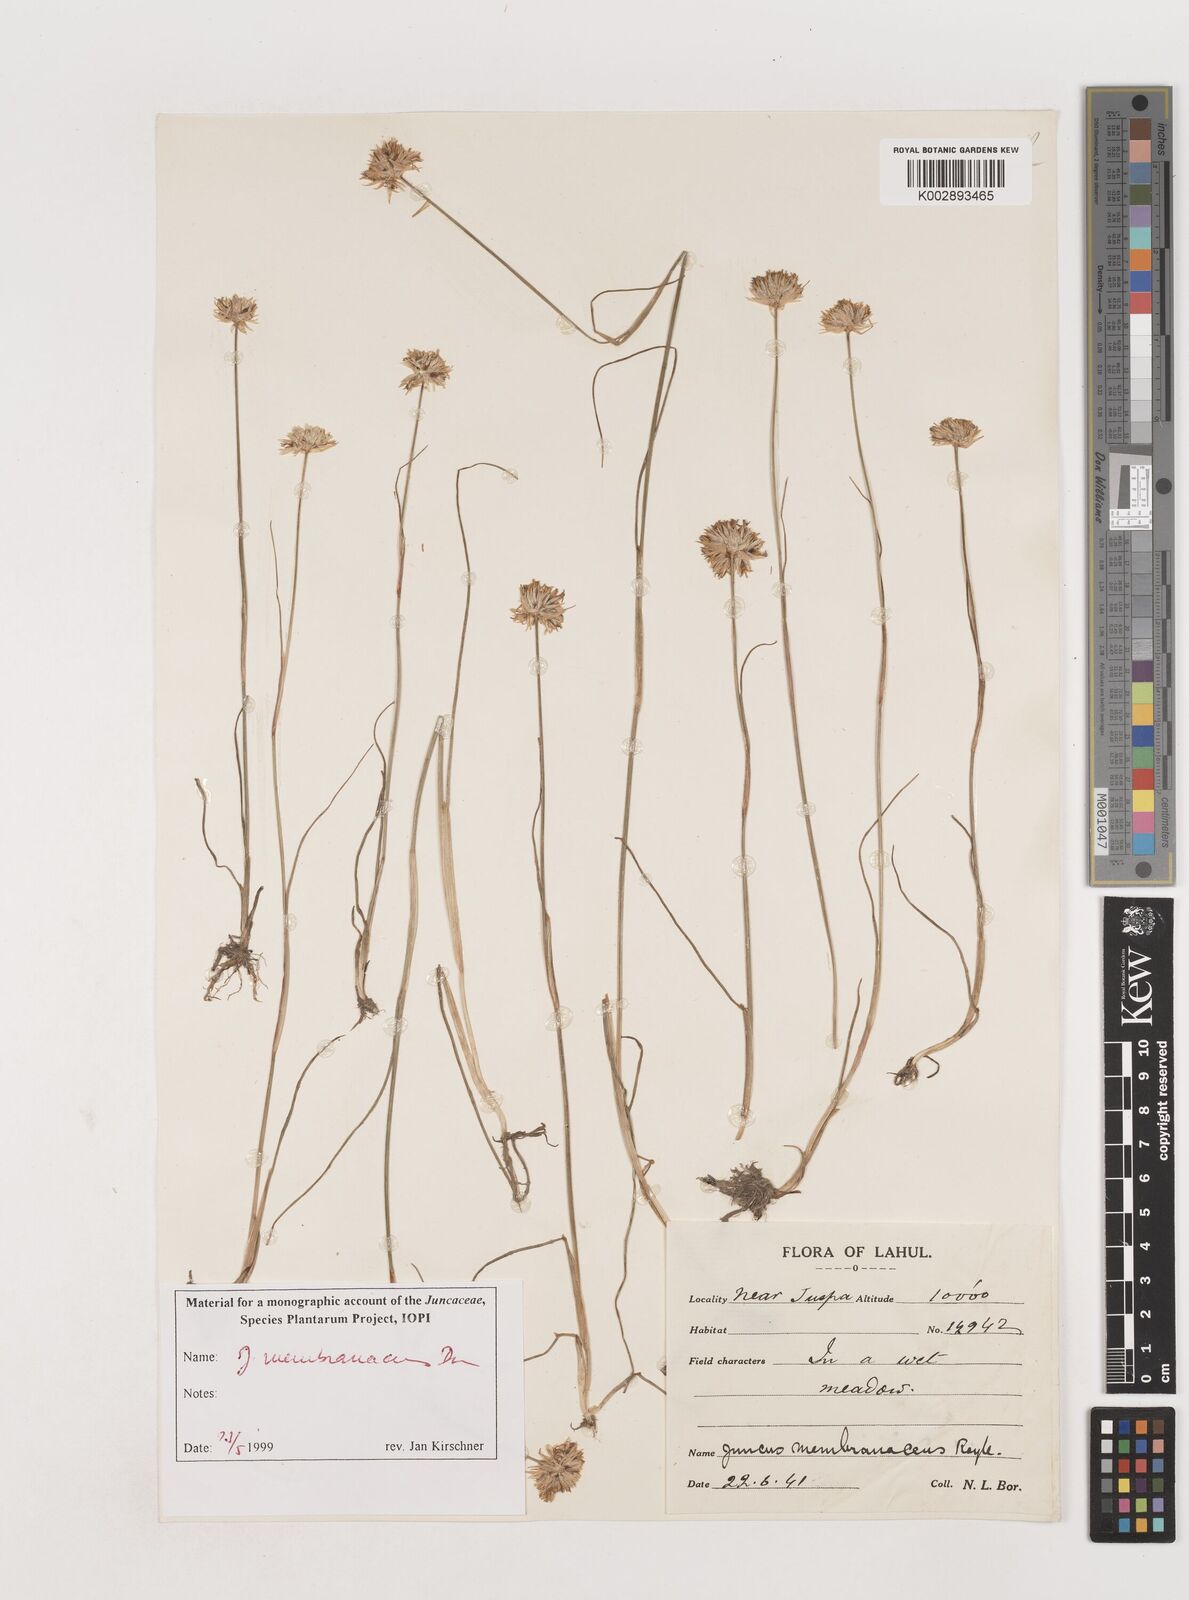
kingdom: Plantae
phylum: Tracheophyta
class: Liliopsida
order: Poales
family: Juncaceae
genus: Juncus
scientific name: Juncus membranaceus
